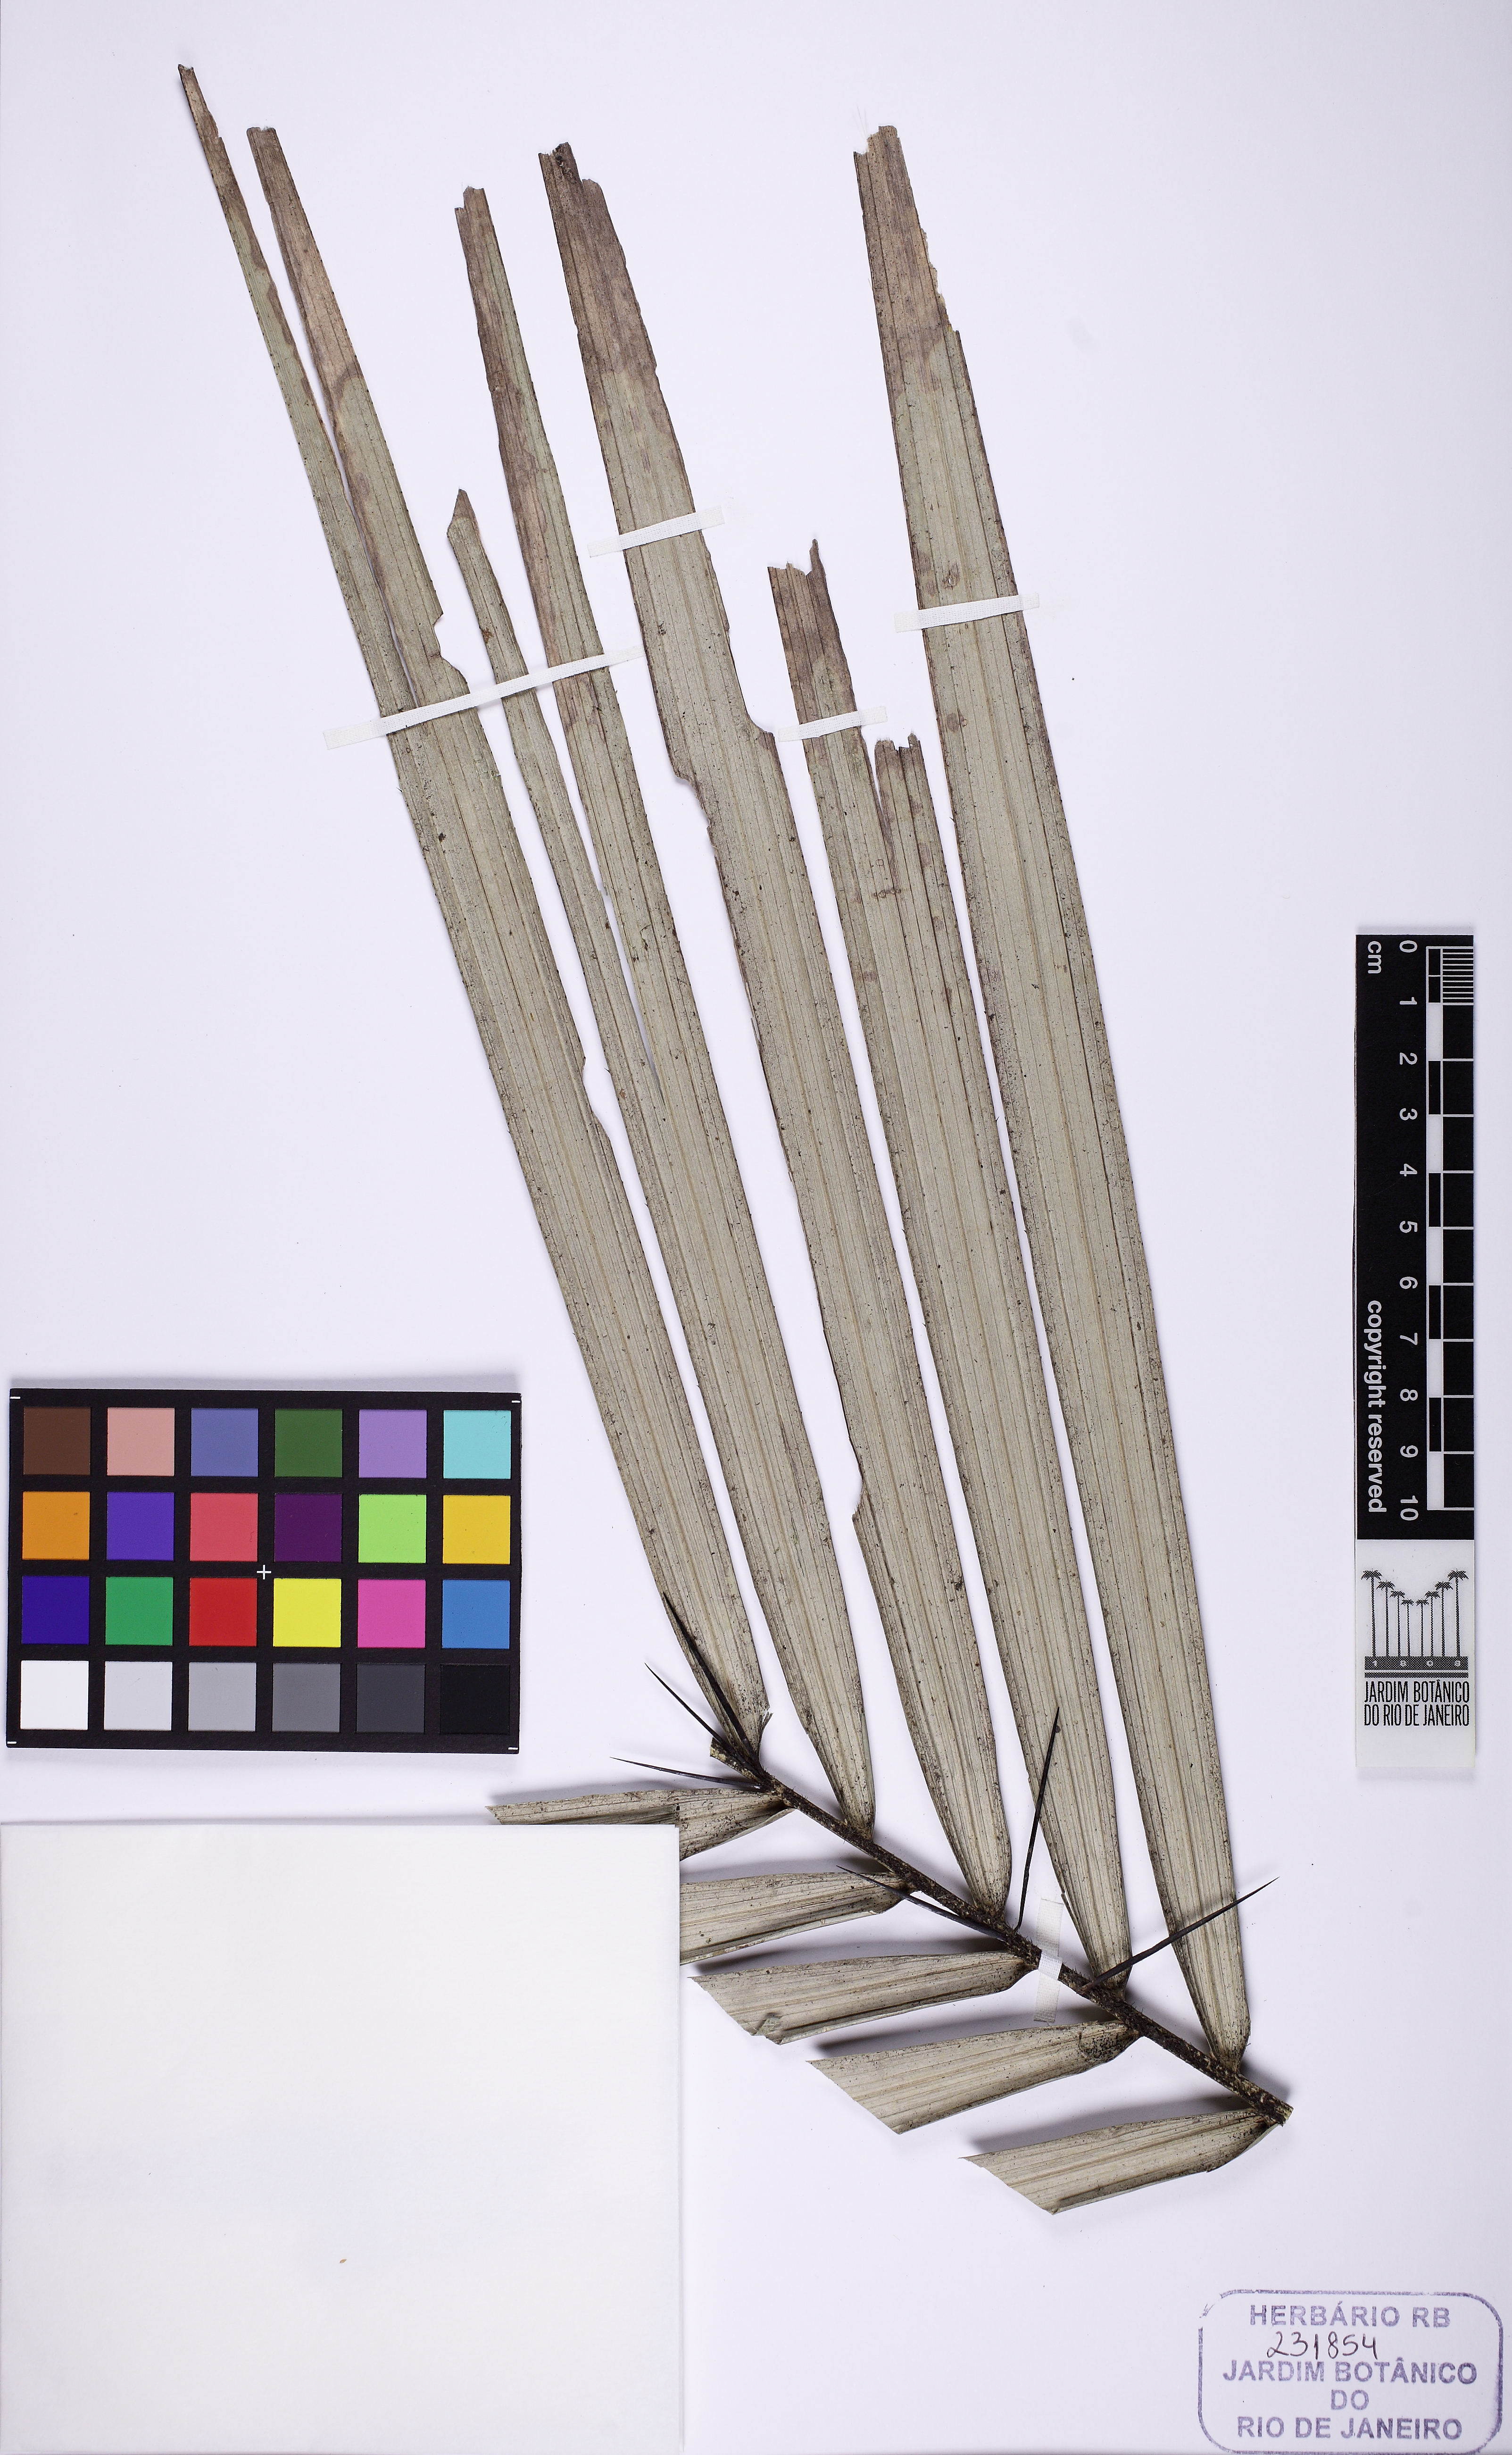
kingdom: Plantae
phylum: Tracheophyta
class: Liliopsida
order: Arecales
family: Arecaceae
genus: Astrocaryum
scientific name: Astrocaryum aculeatissimum
